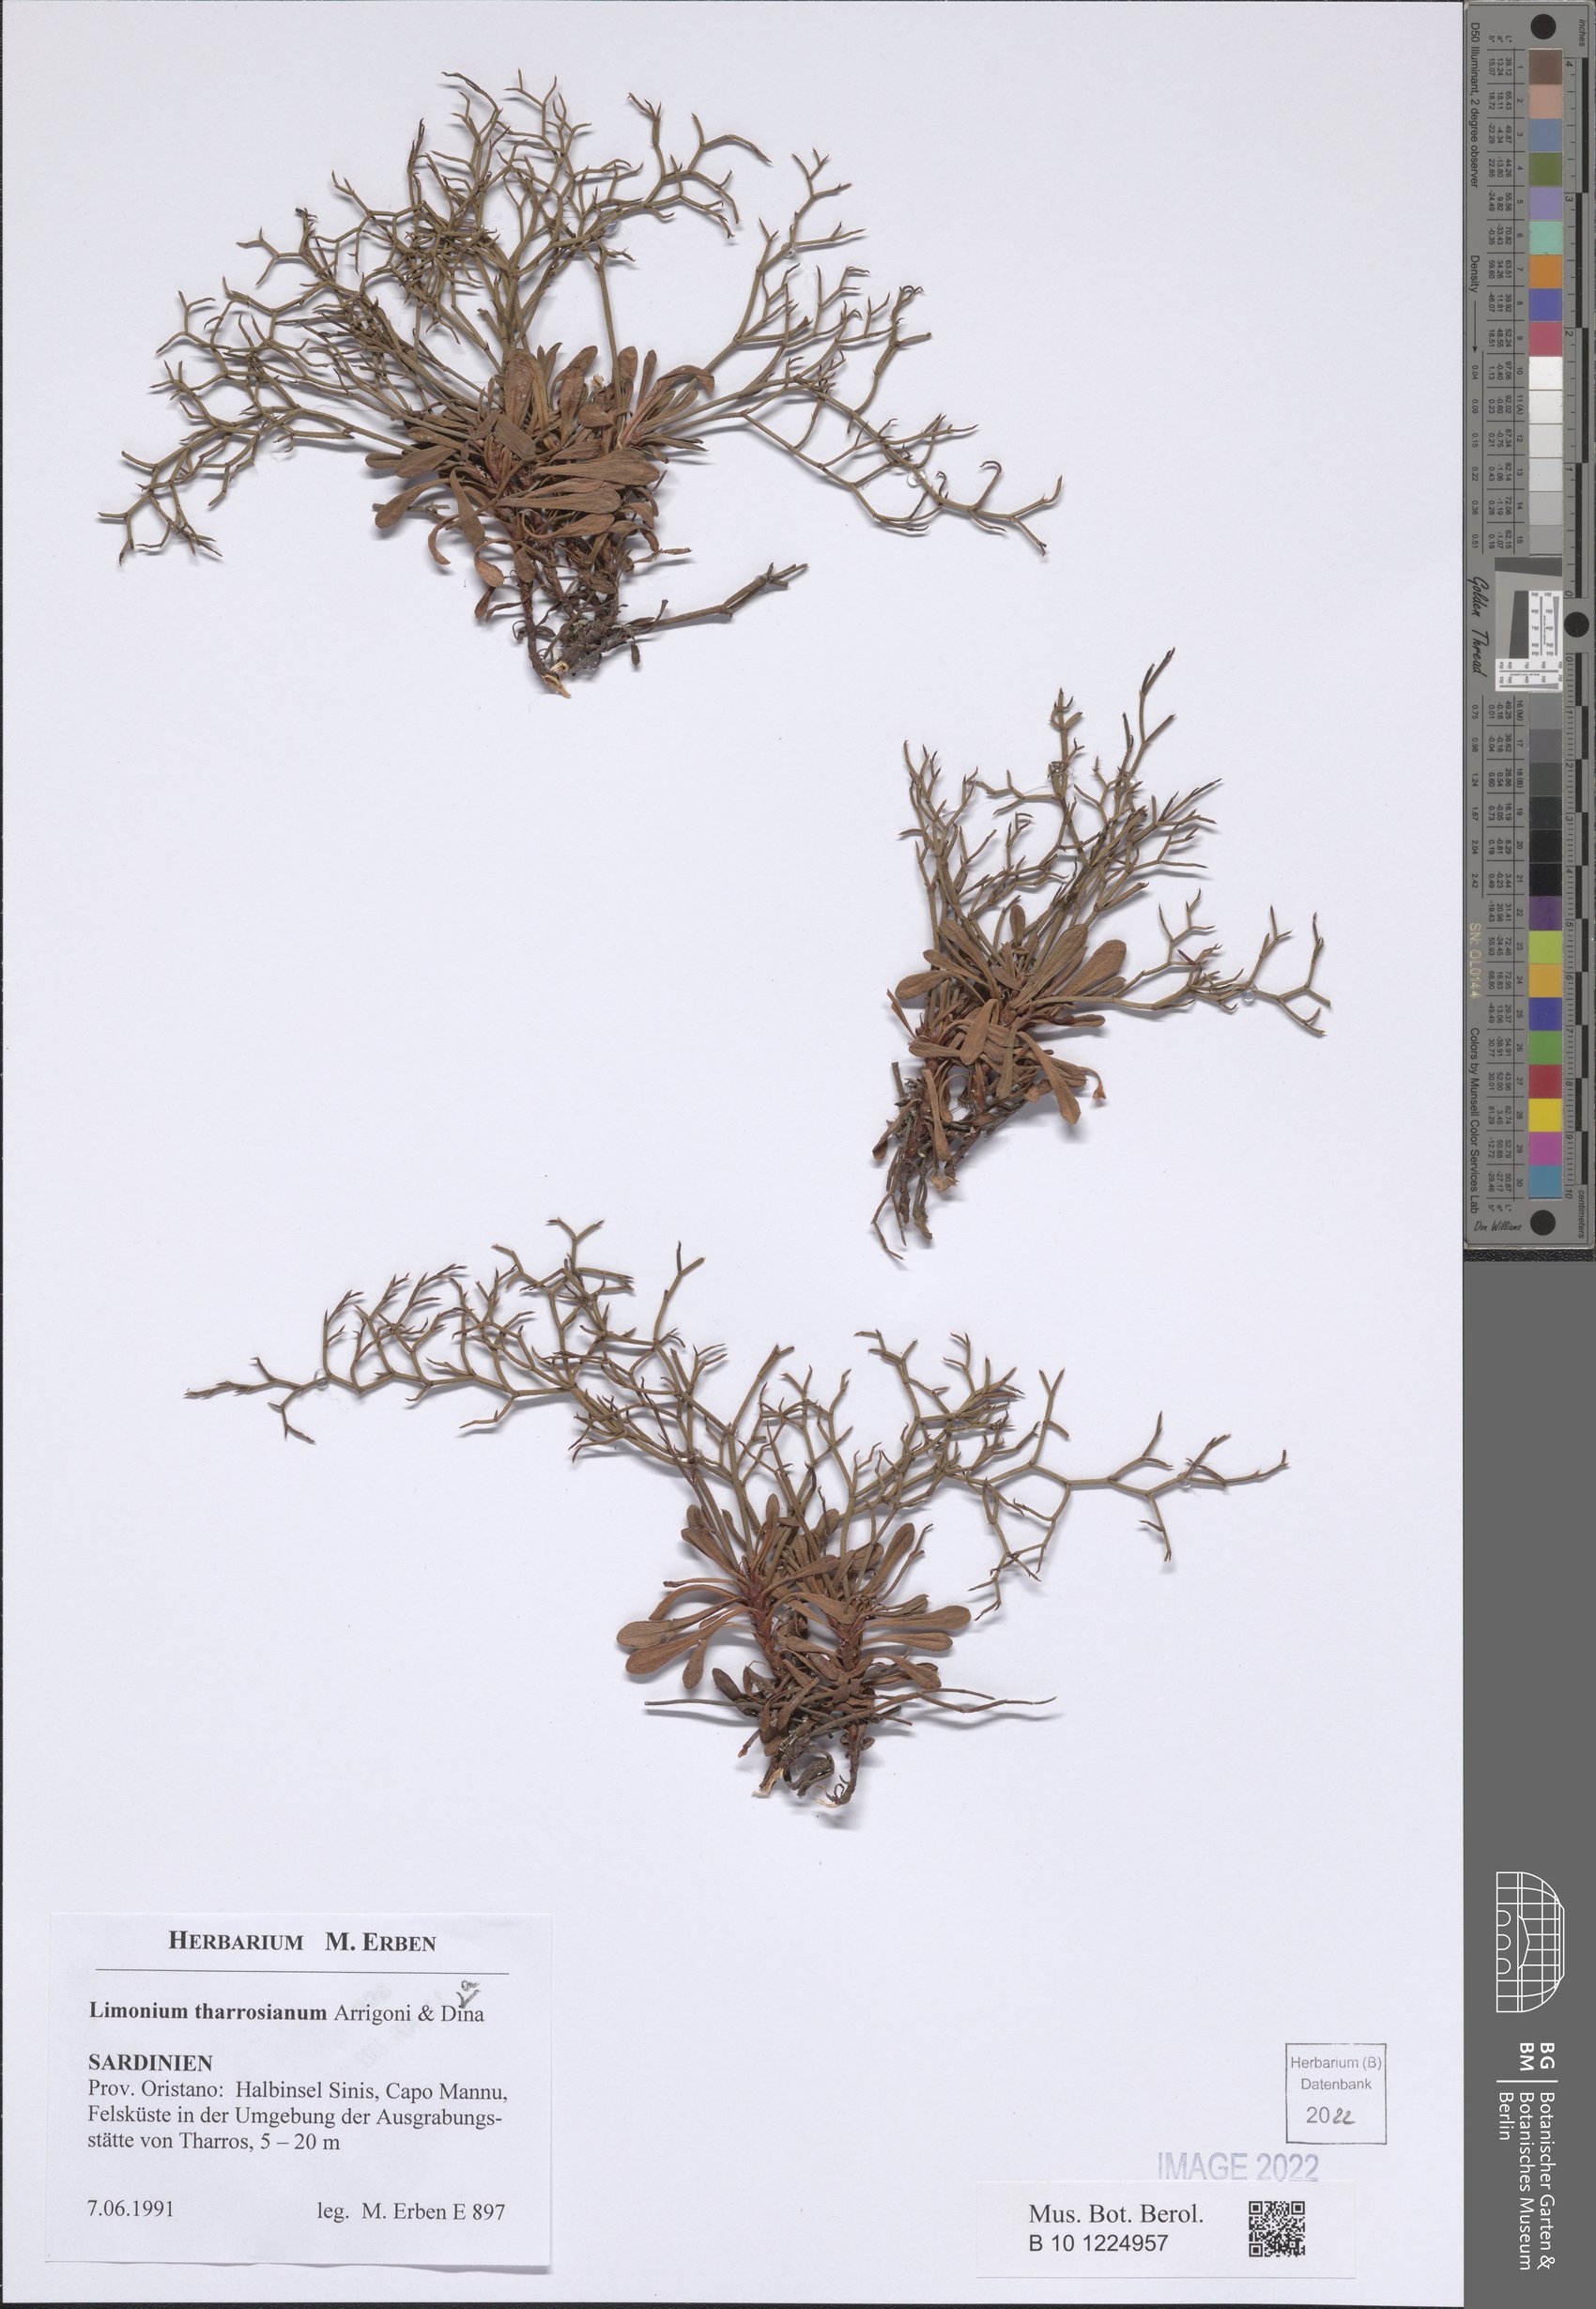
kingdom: Plantae
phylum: Tracheophyta
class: Magnoliopsida
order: Caryophyllales
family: Plumbaginaceae
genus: Limonium
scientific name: Limonium acutifolium
